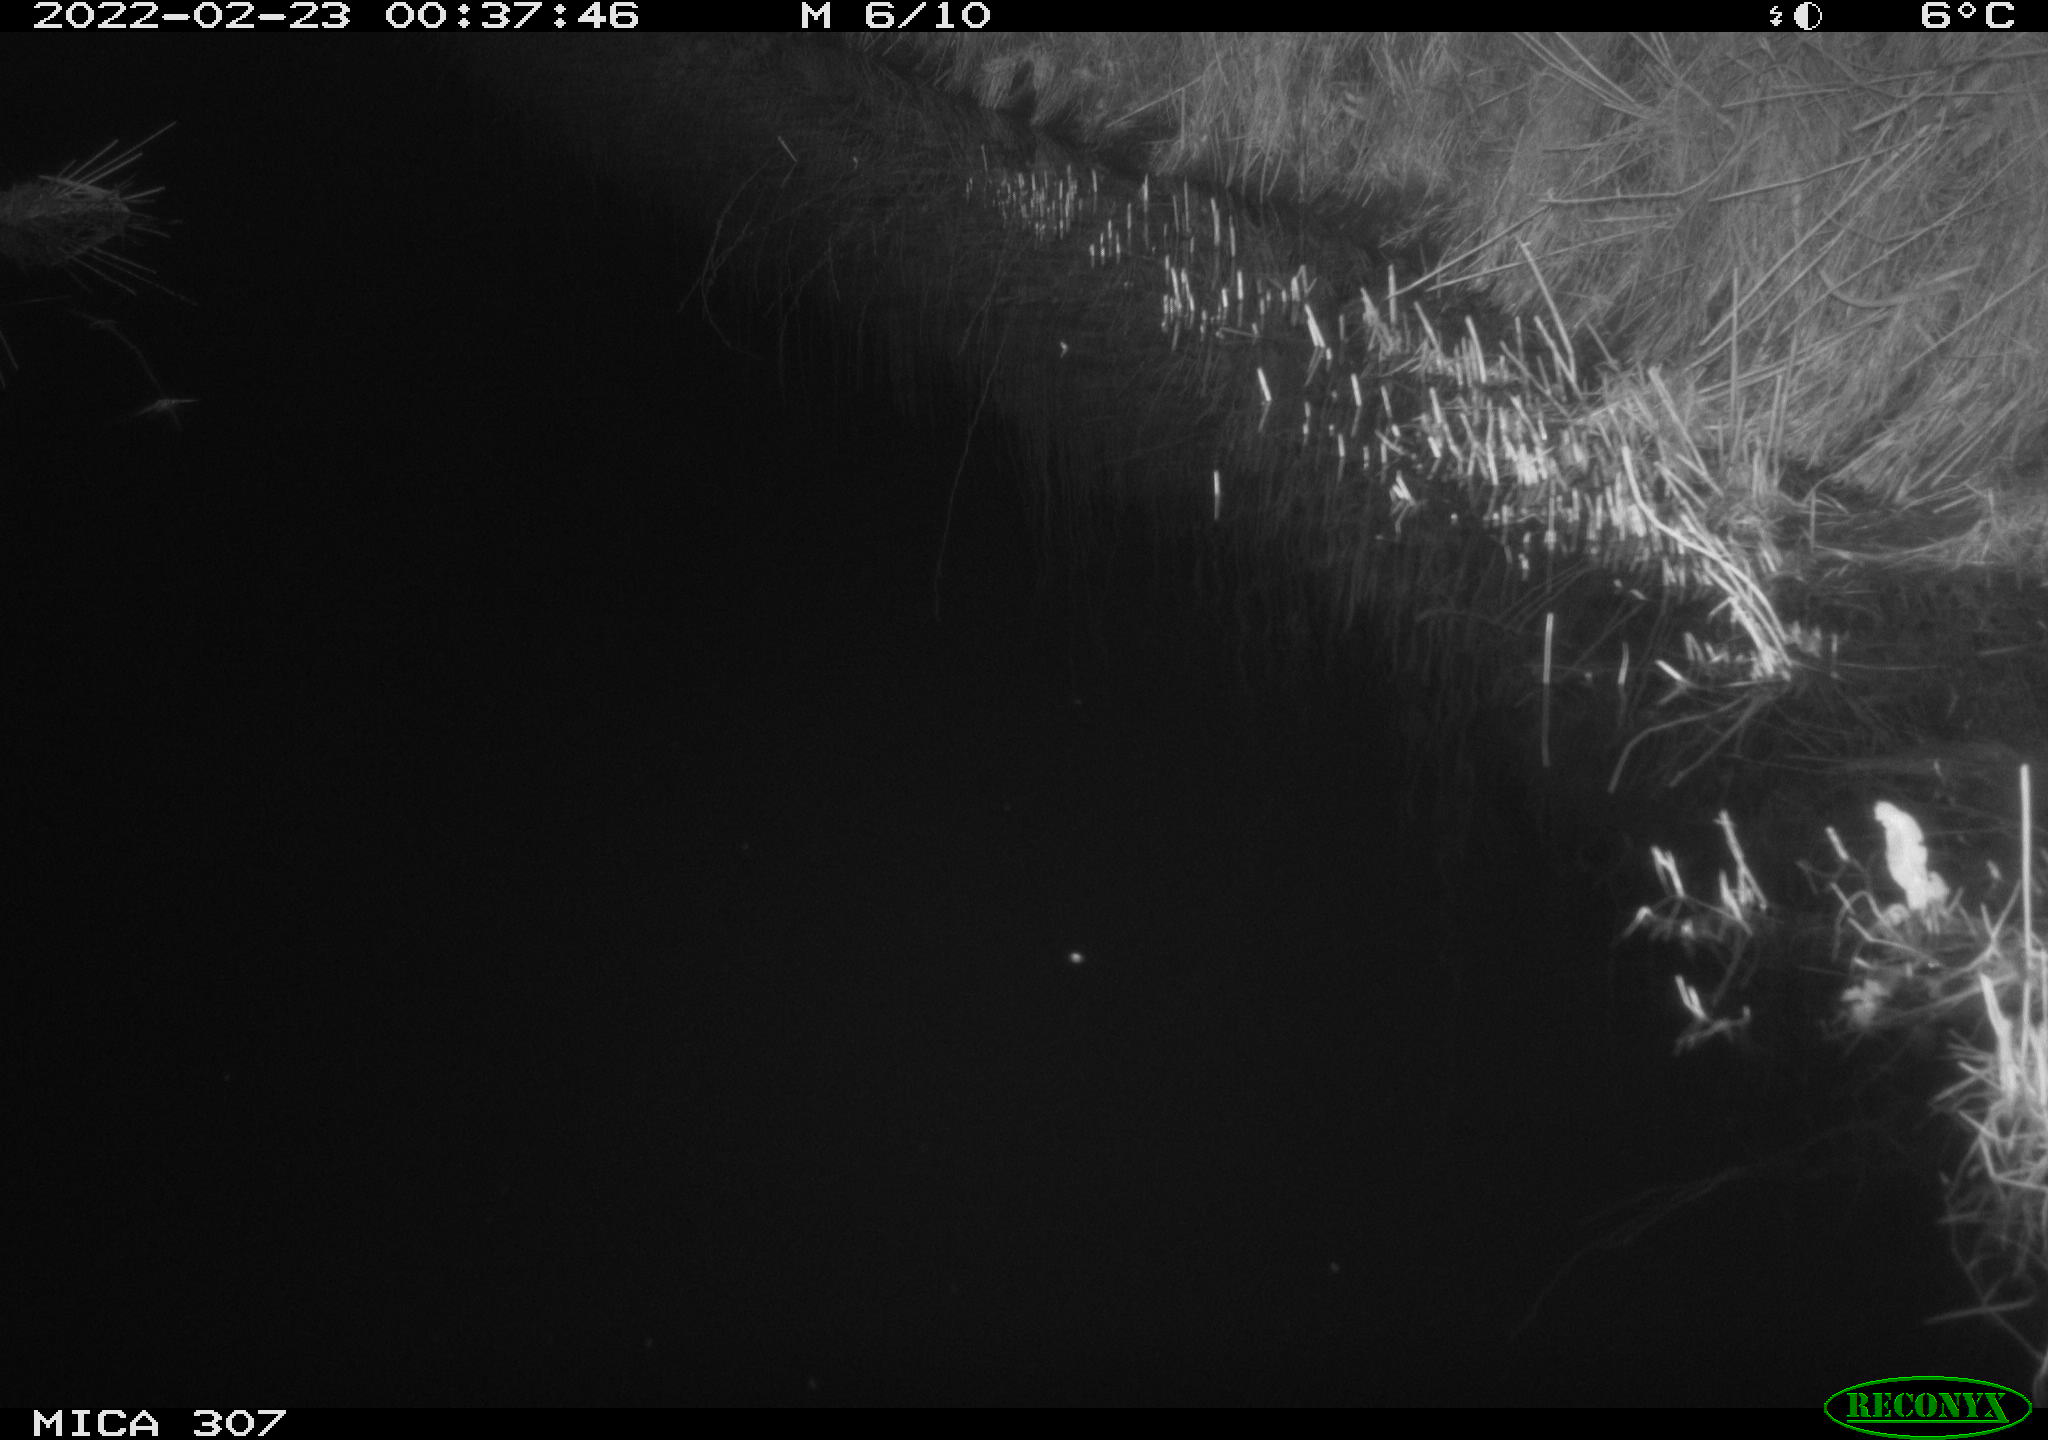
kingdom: Animalia
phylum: Chordata
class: Mammalia
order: Rodentia
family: Muridae
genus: Rattus
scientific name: Rattus norvegicus
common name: Brown rat
